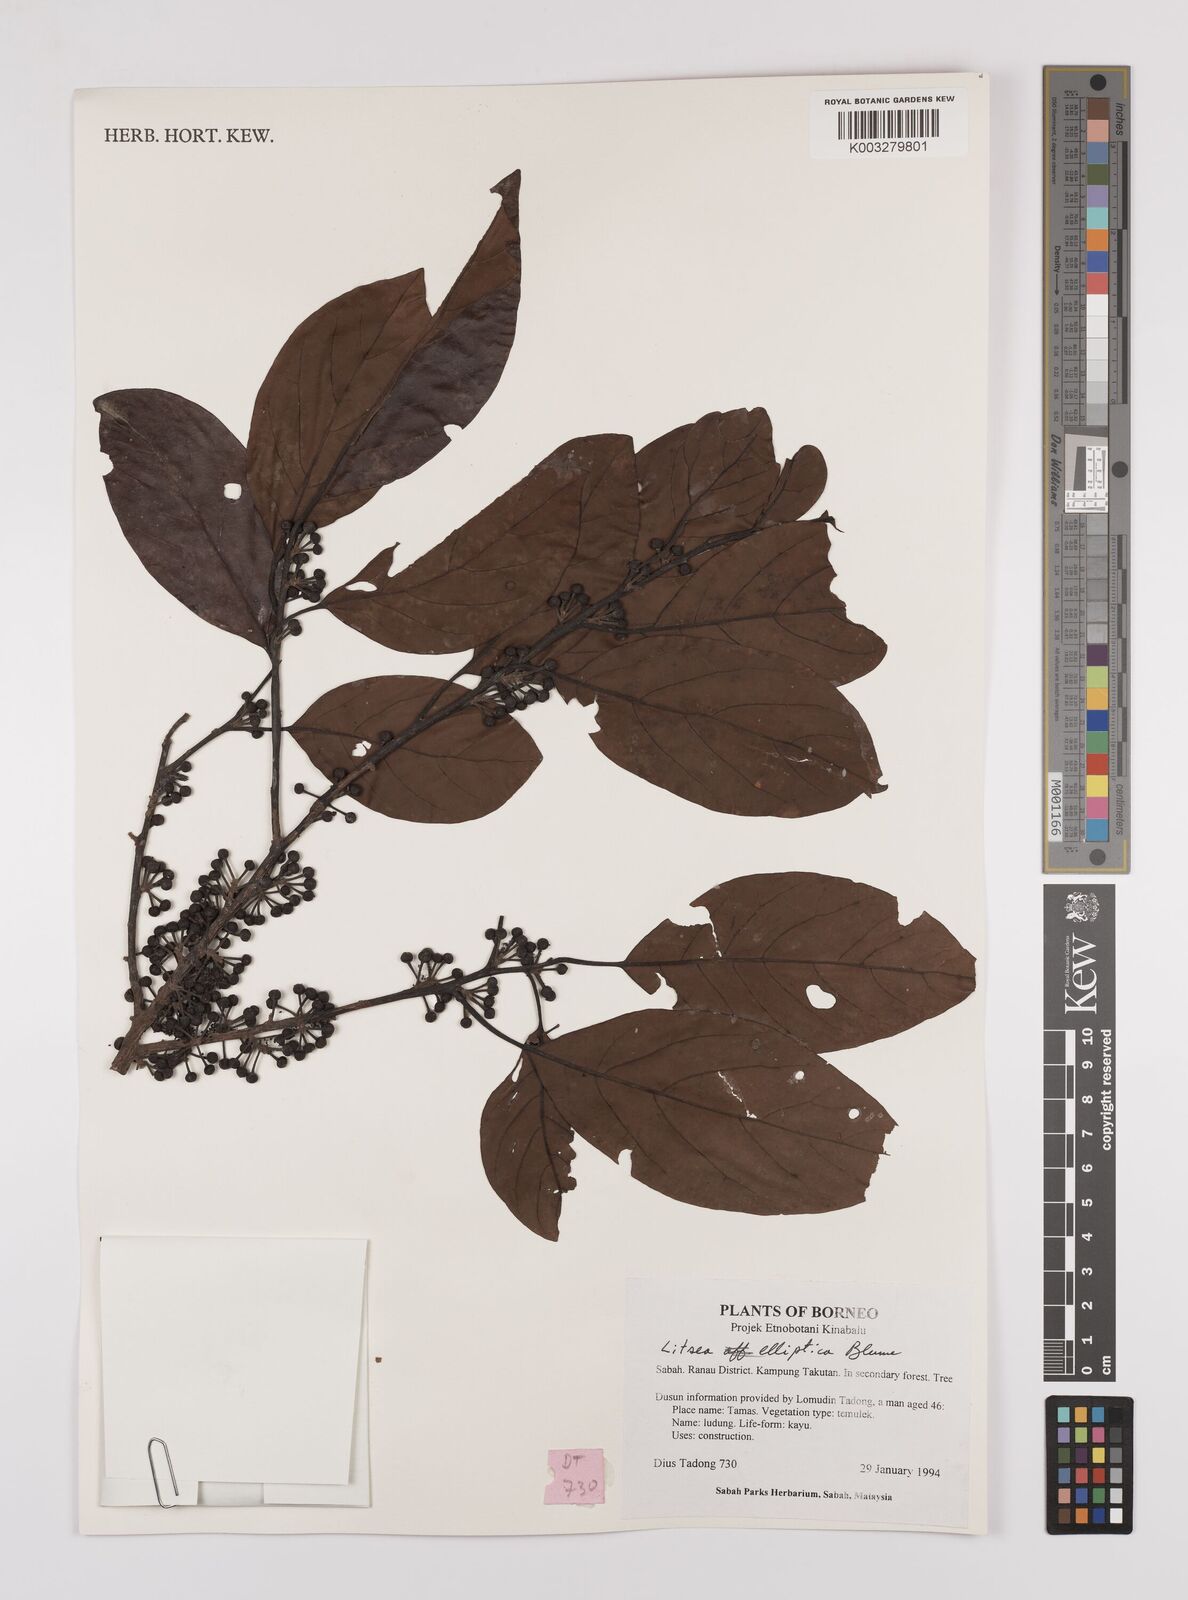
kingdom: Plantae
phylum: Tracheophyta
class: Magnoliopsida
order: Laurales
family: Lauraceae
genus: Litsea
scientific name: Litsea elliptica
